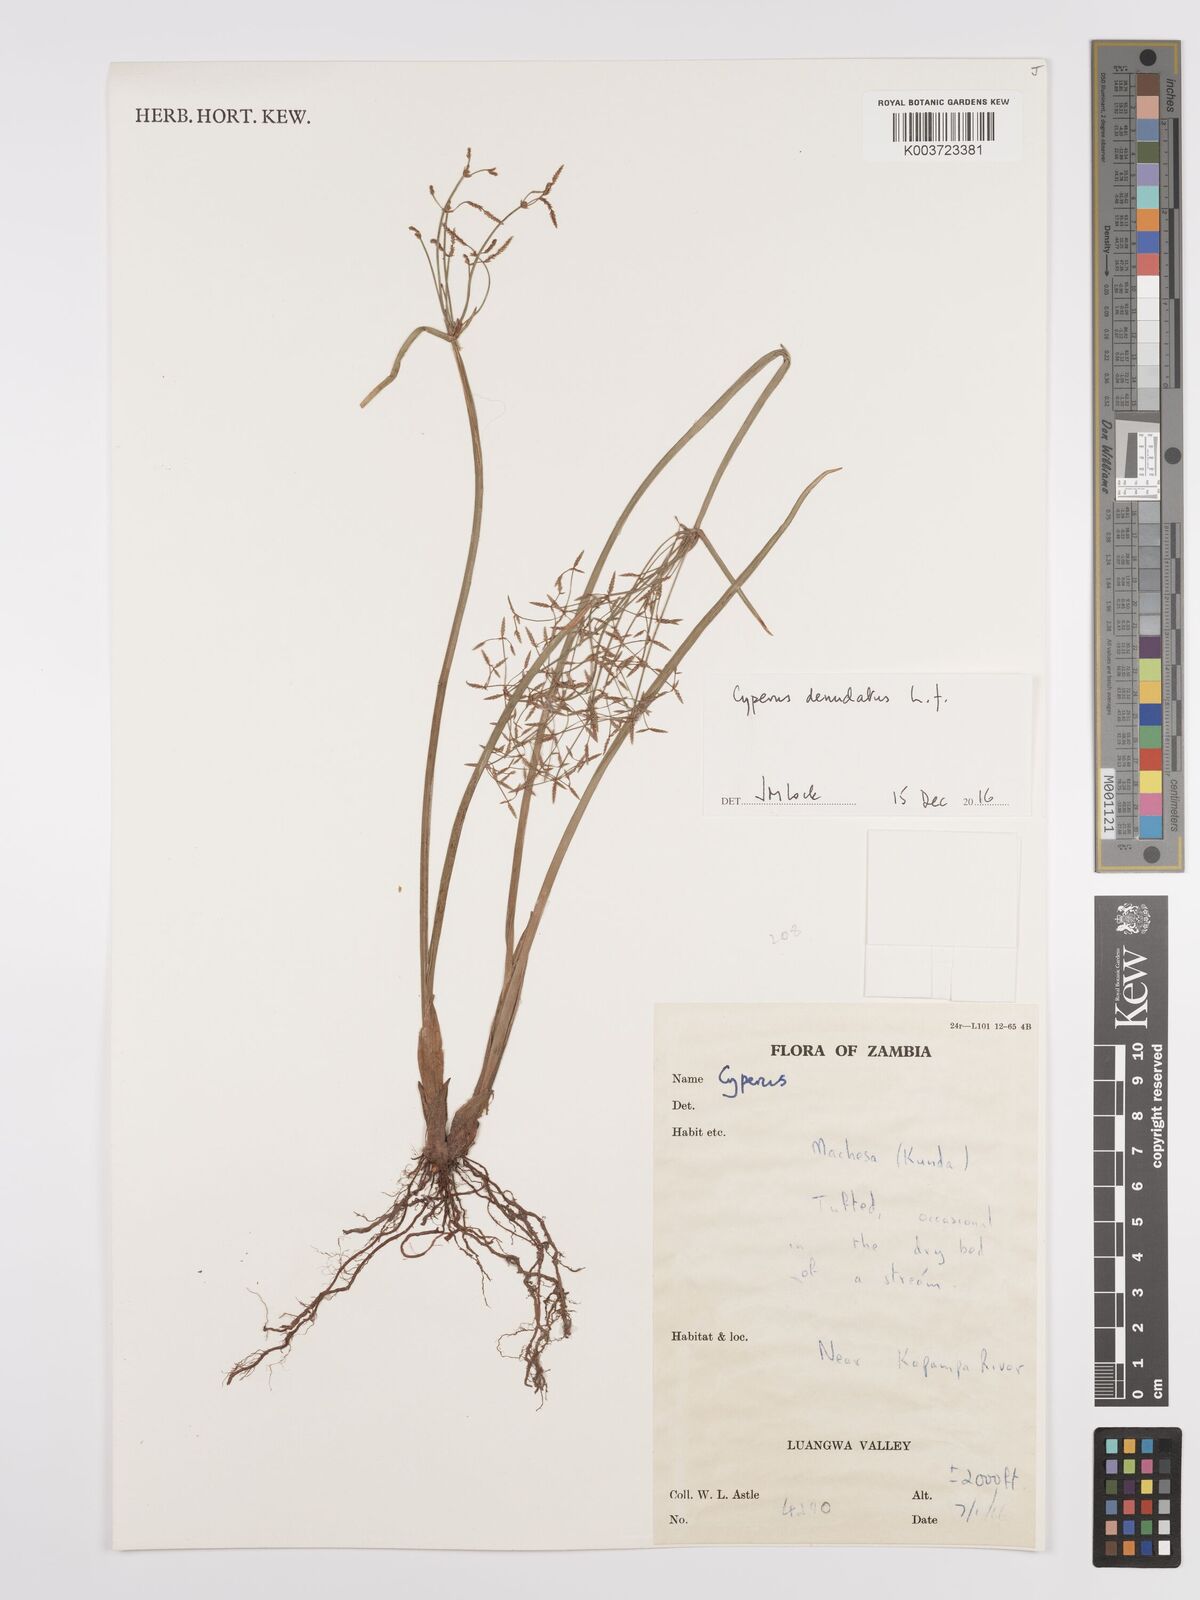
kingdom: Plantae
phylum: Tracheophyta
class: Liliopsida
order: Poales
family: Cyperaceae
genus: Cyperus
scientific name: Cyperus denudatus
